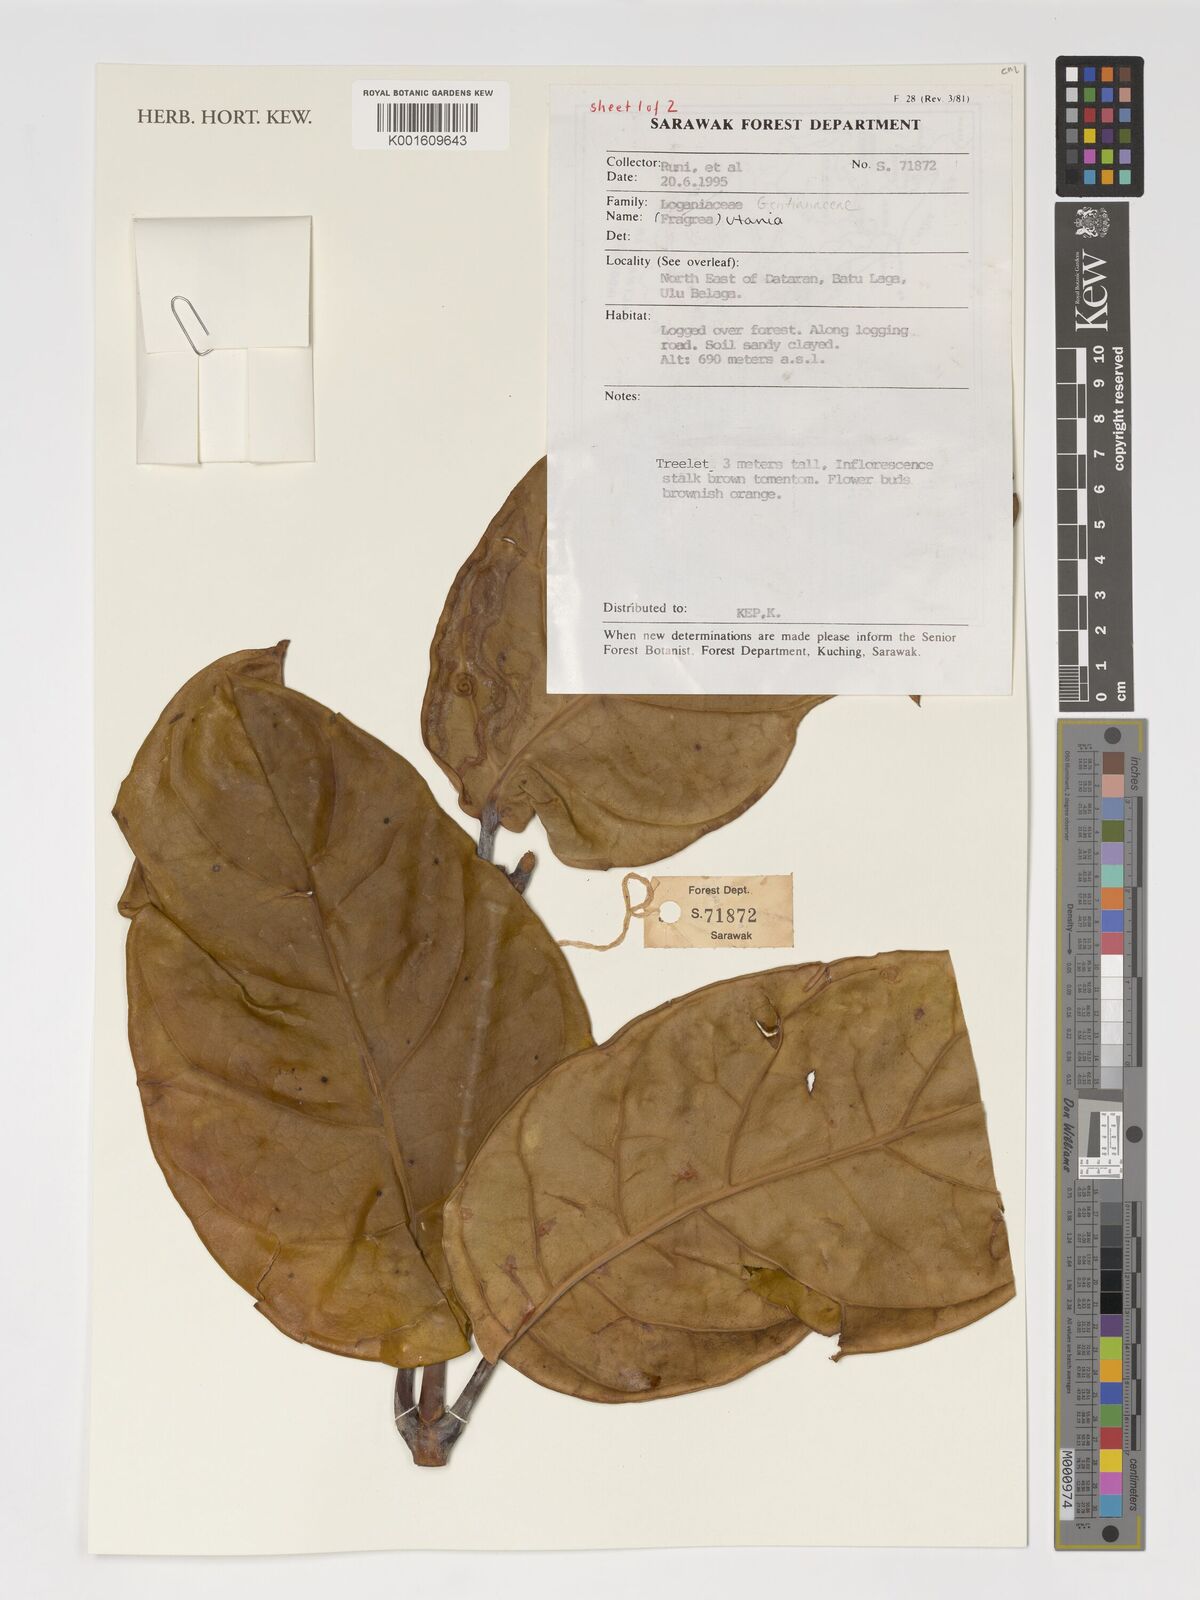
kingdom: Plantae
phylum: Tracheophyta
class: Magnoliopsida
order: Gentianales
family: Gentianaceae
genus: Utania
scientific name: Utania
